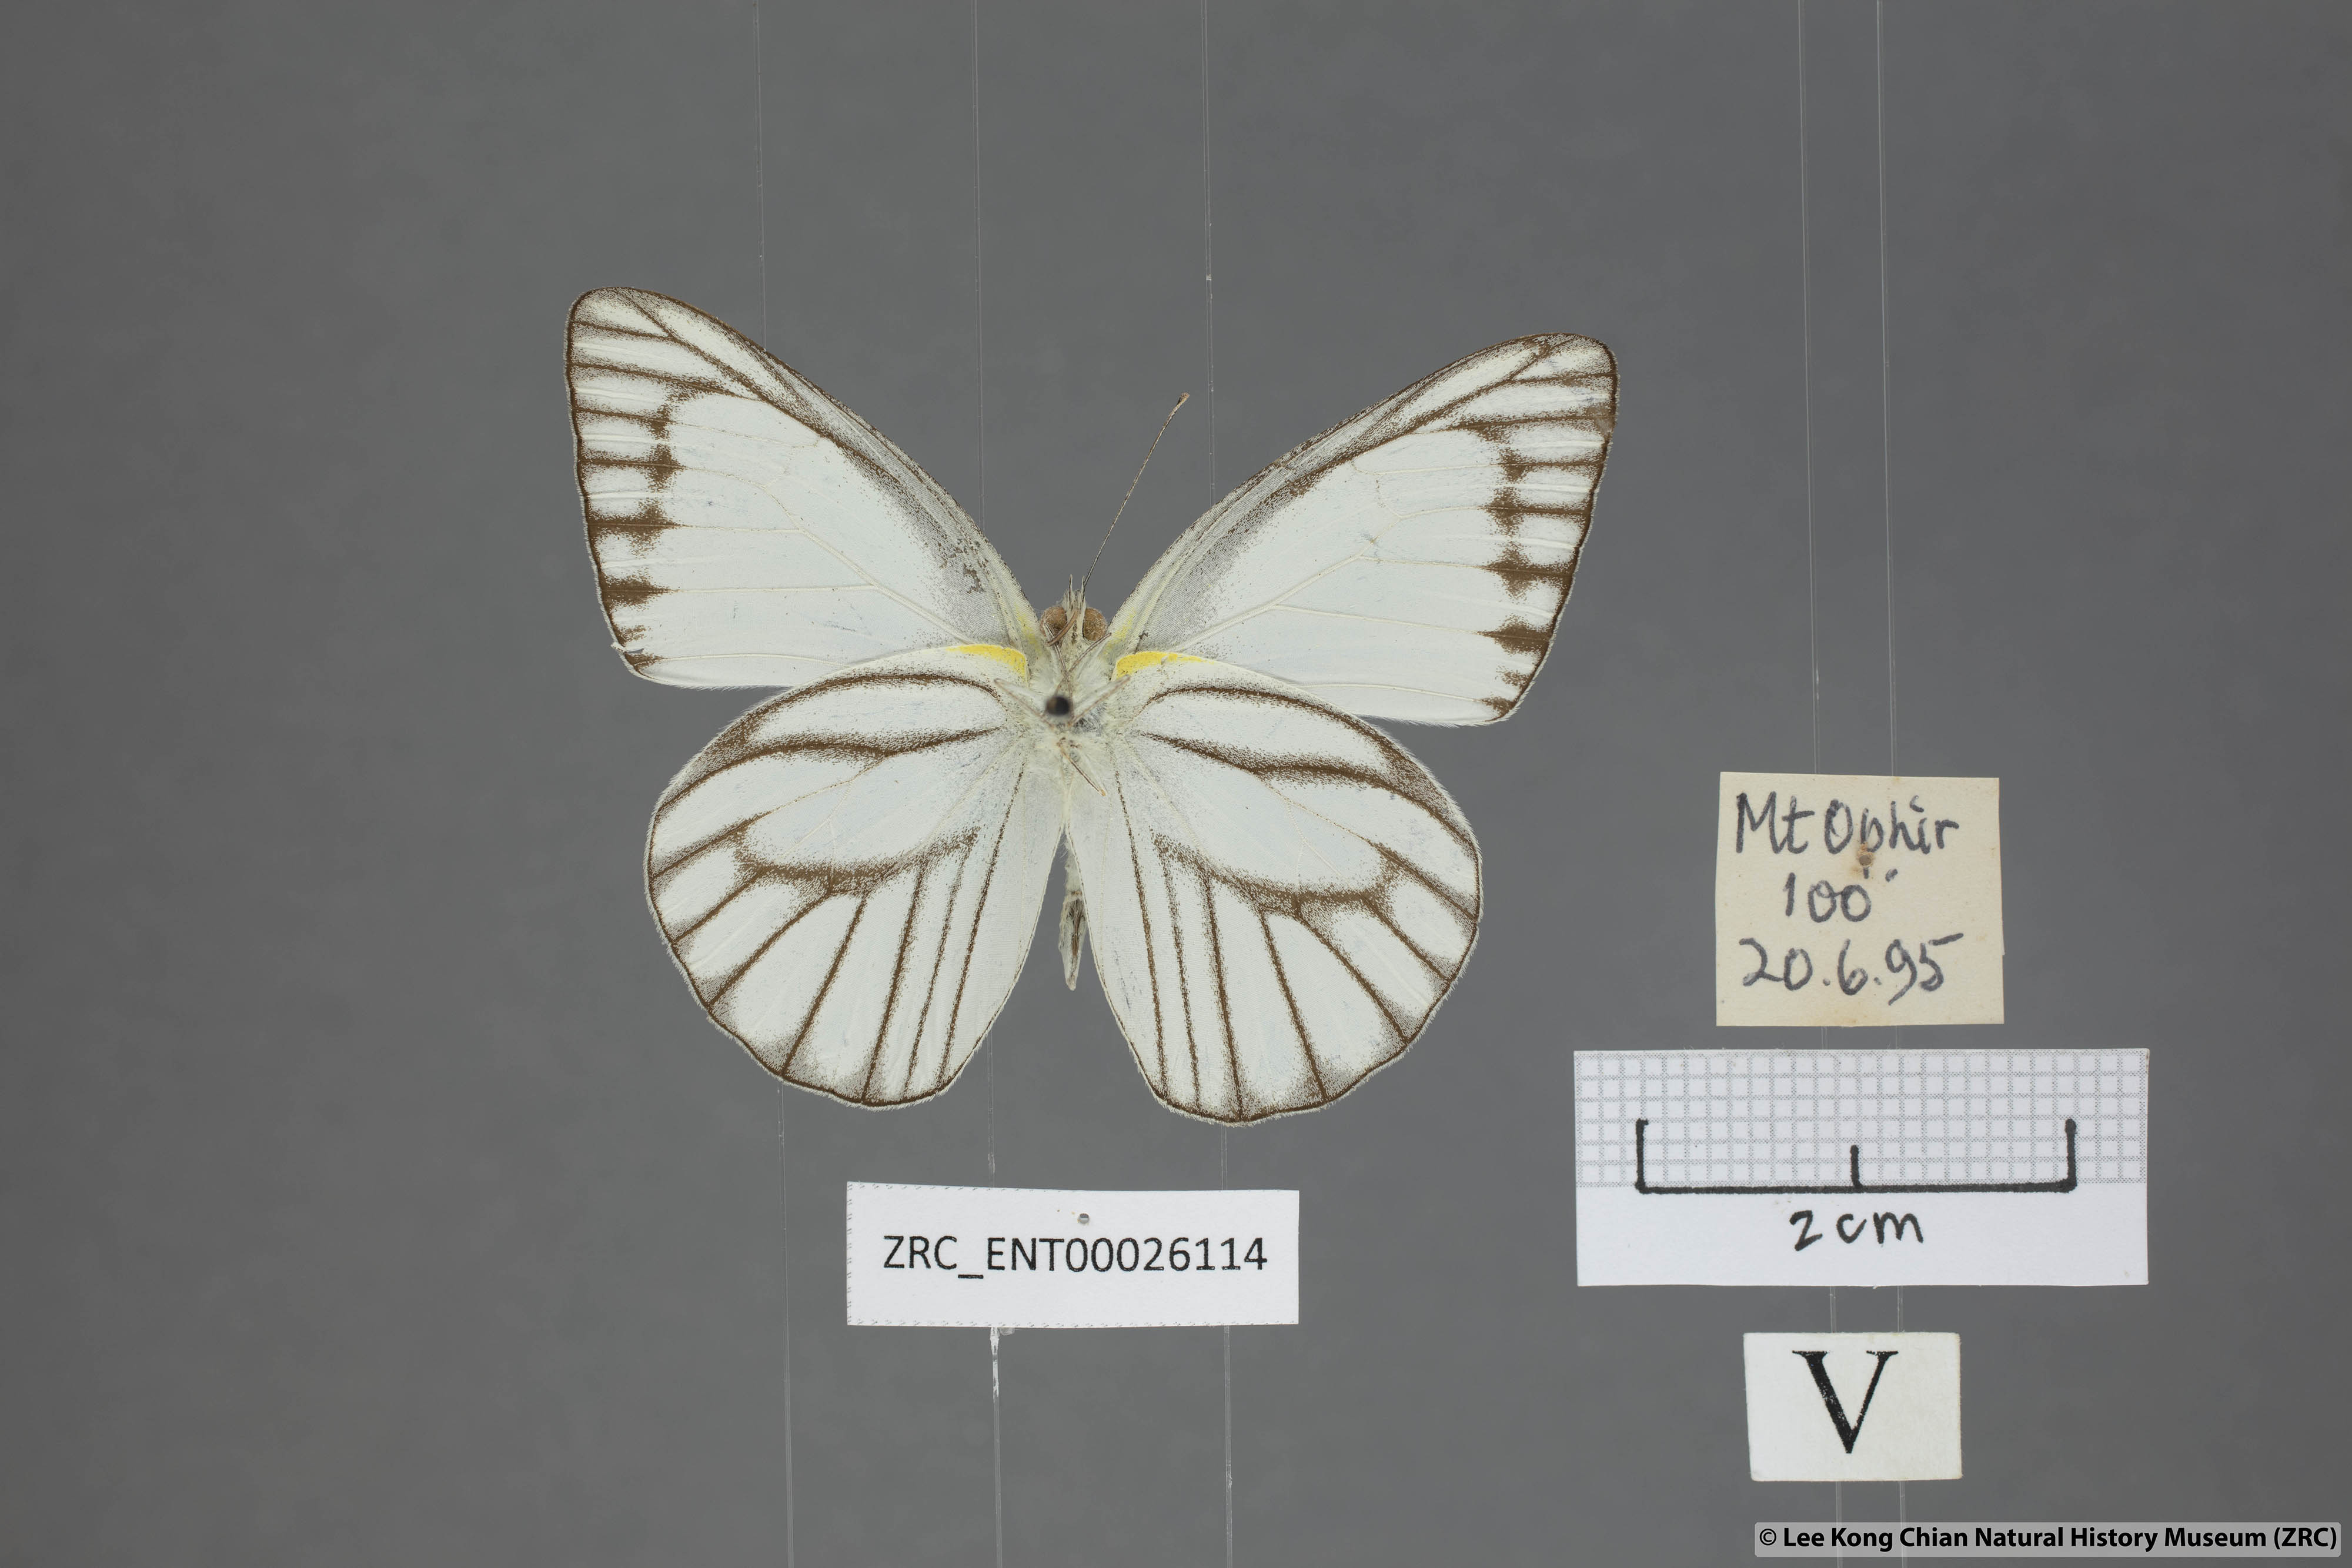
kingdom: Animalia
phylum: Arthropoda
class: Insecta
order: Lepidoptera
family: Pieridae
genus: Appias
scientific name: Appias libythea
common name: Striped albatross
